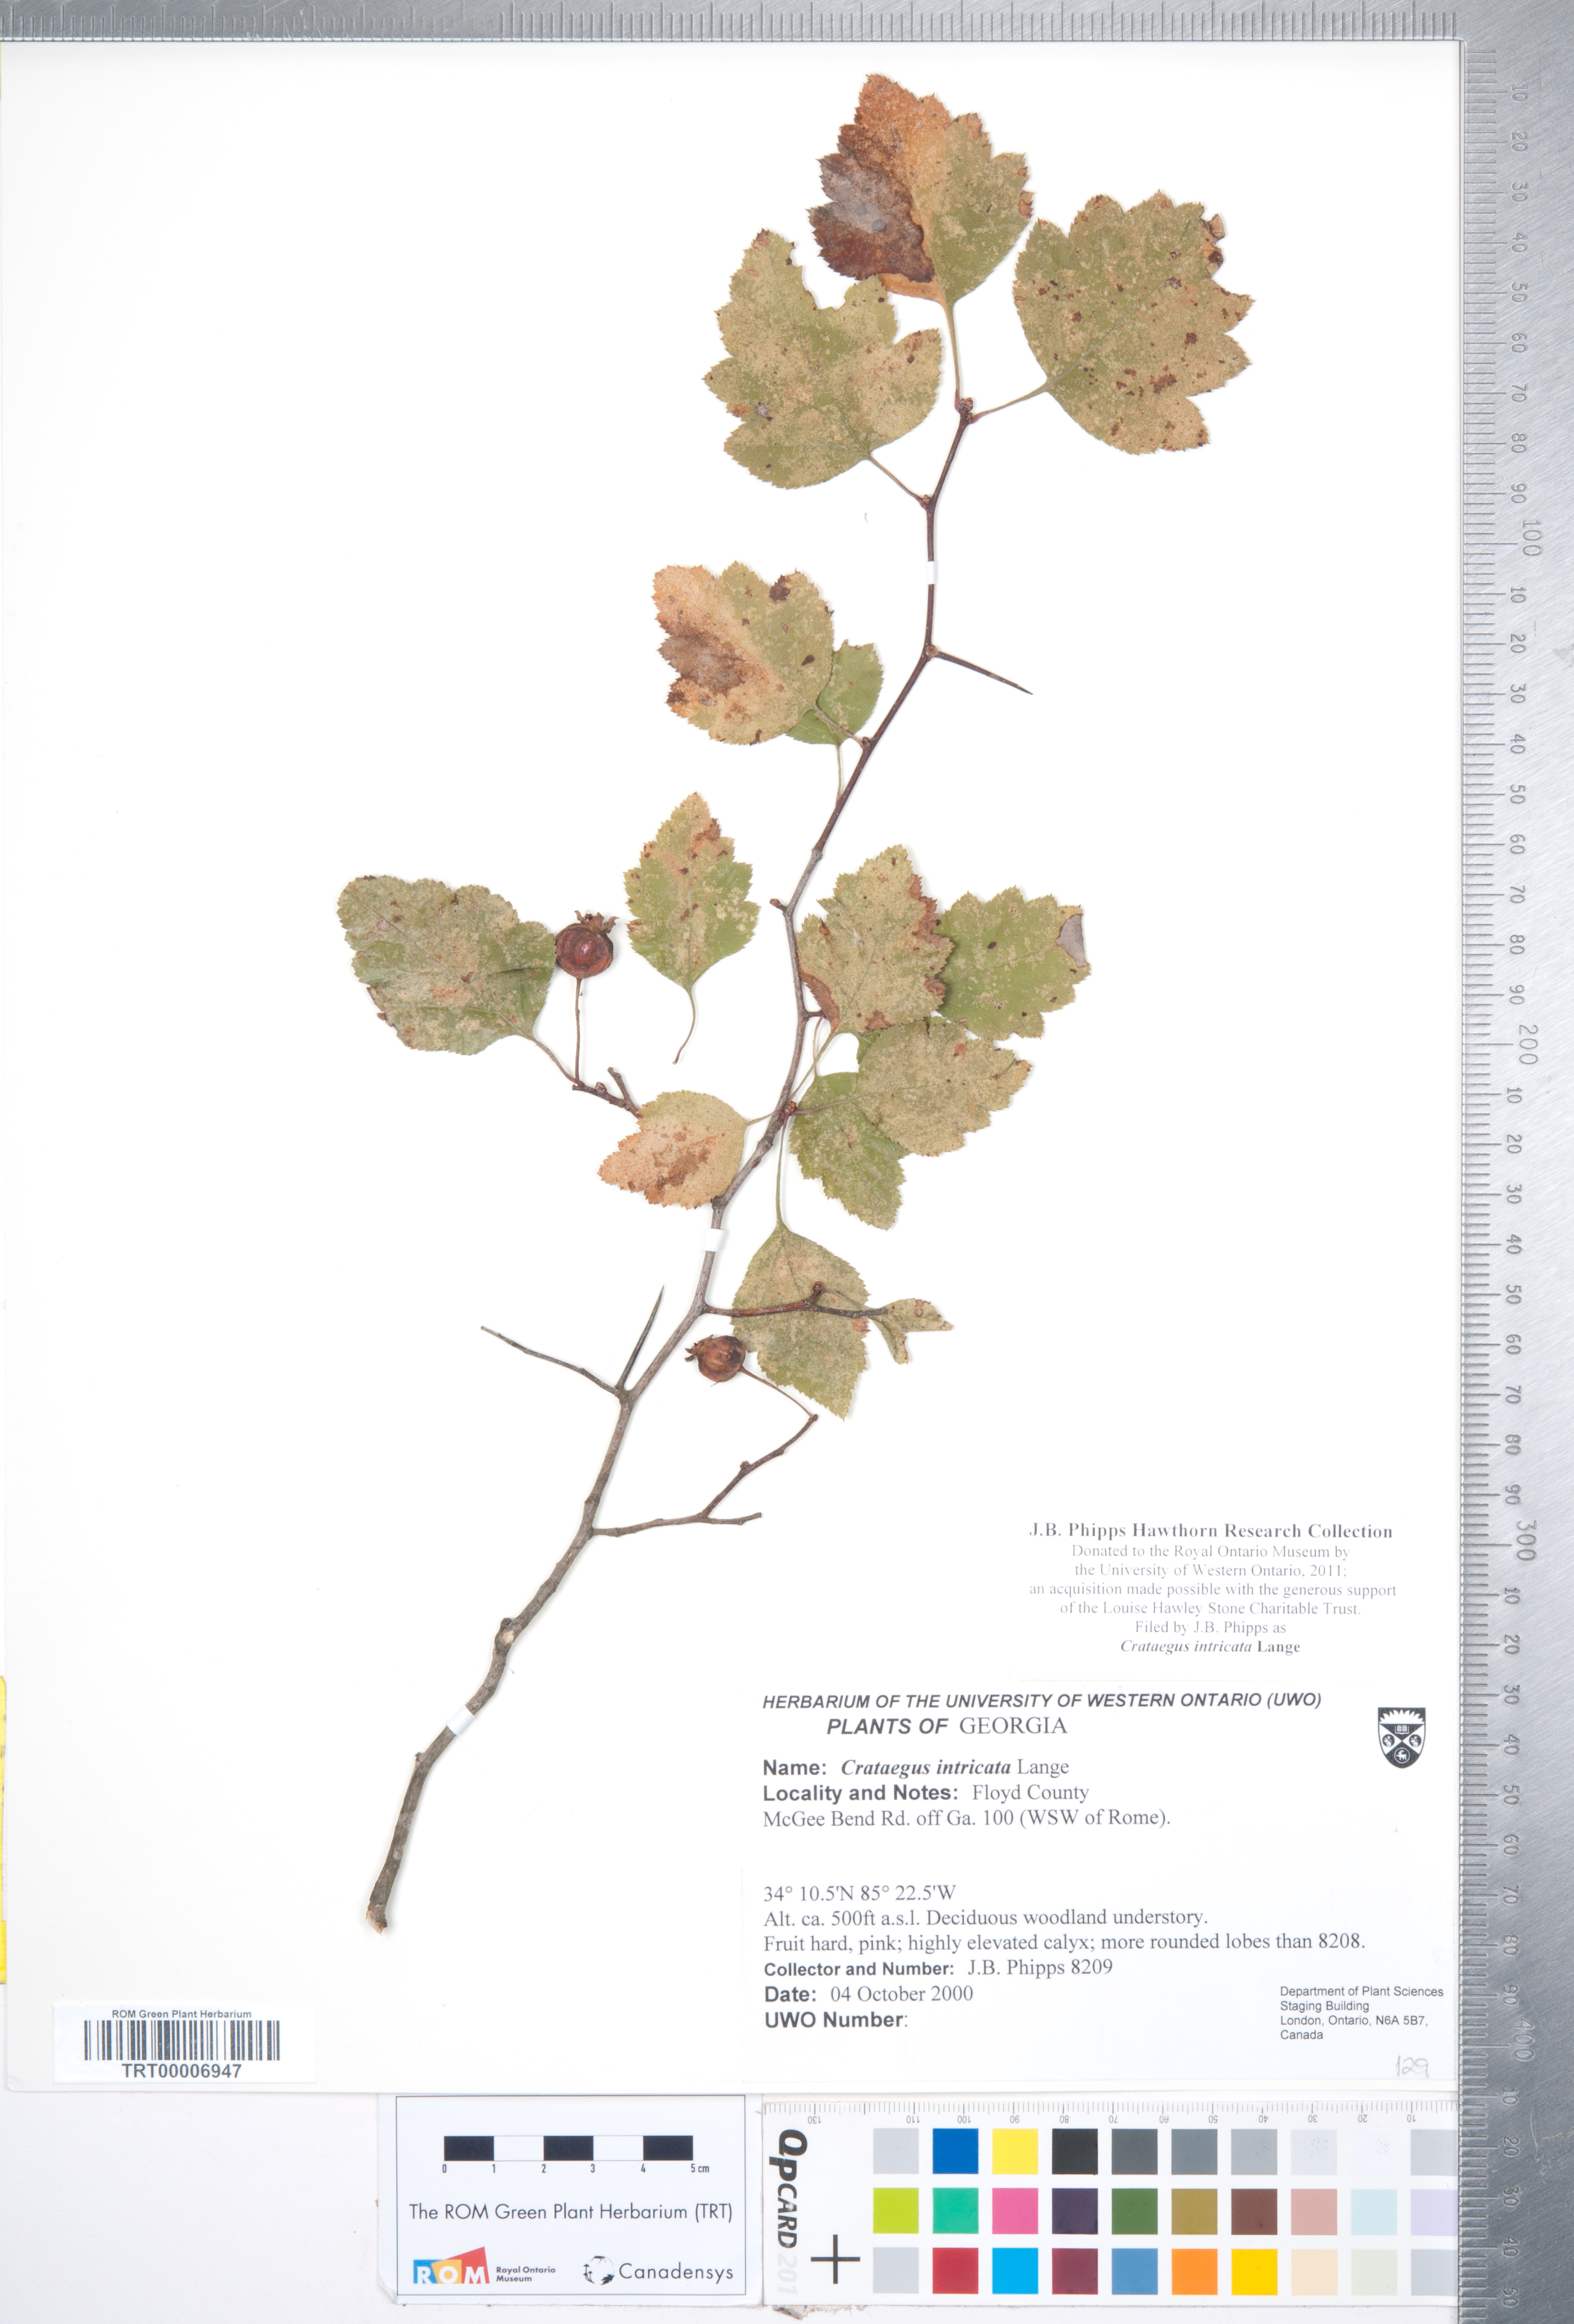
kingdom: Plantae
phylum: Tracheophyta
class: Magnoliopsida
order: Rosales
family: Rosaceae
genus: Crataegus
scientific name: Crataegus intricata
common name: Biltmore hawthorn
